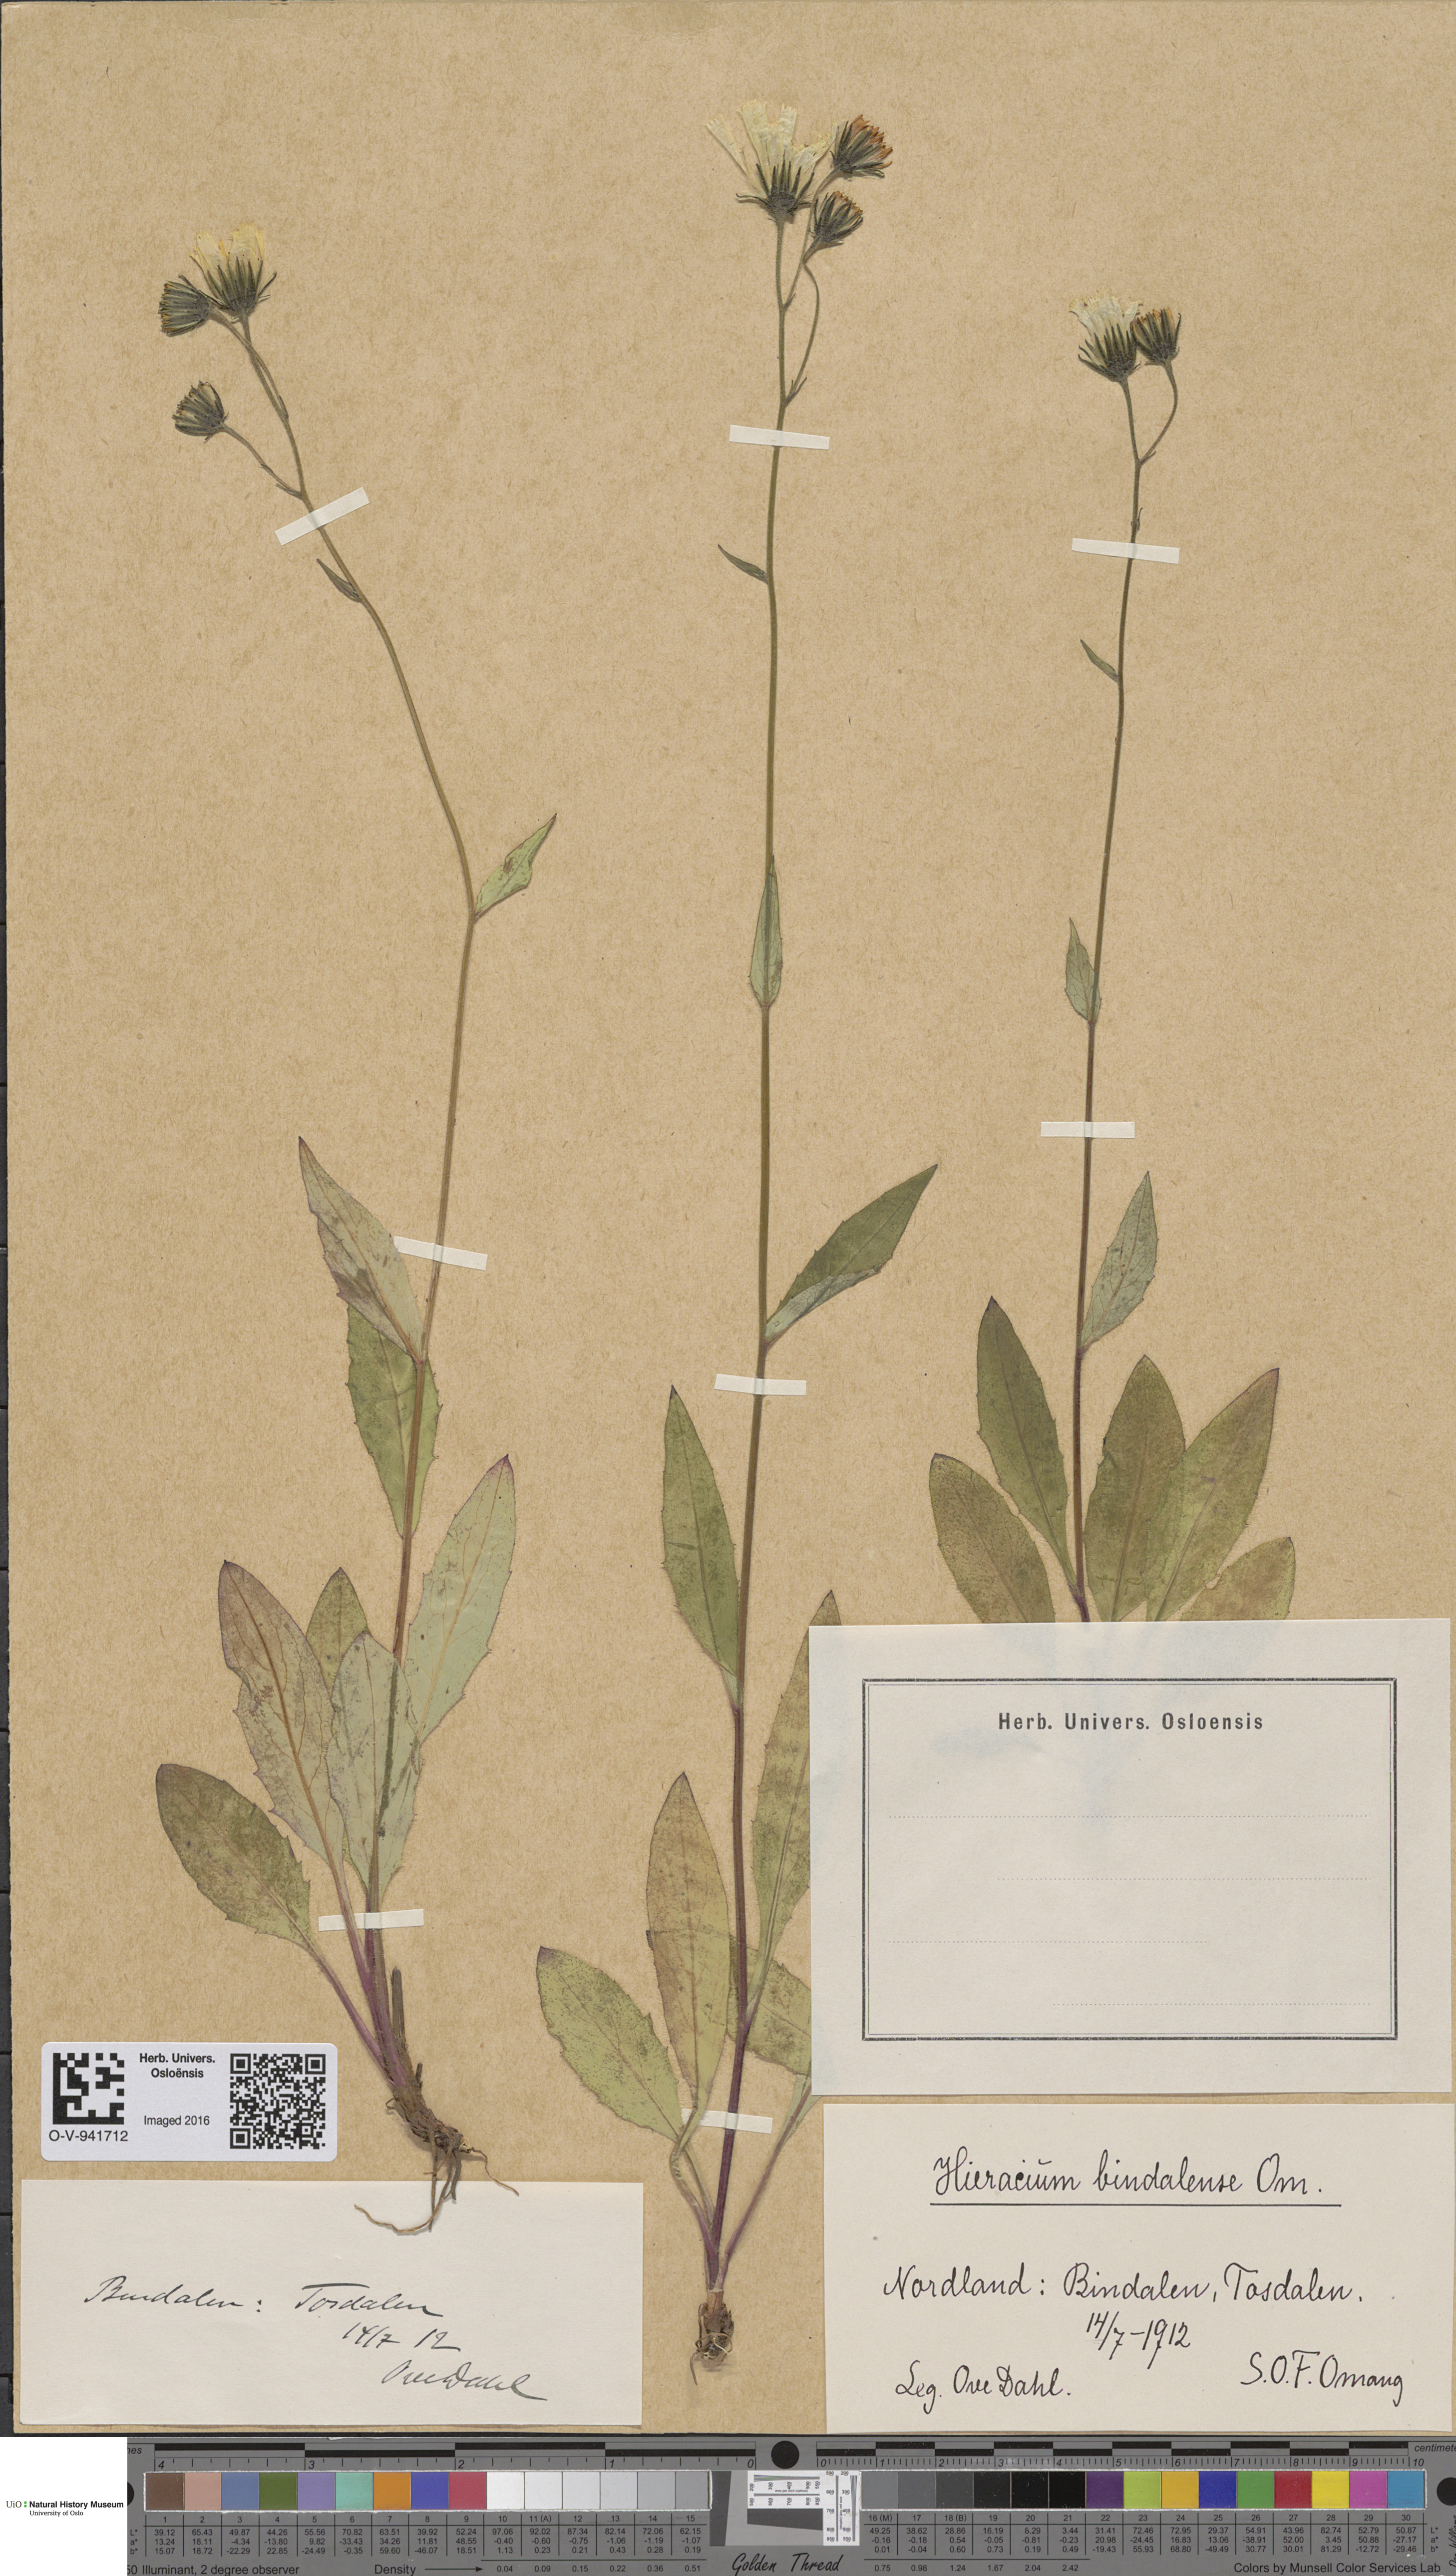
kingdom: Plantae
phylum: Tracheophyta
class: Magnoliopsida
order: Asterales
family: Asteraceae
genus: Hieracium
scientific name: Hieracium bindalense
